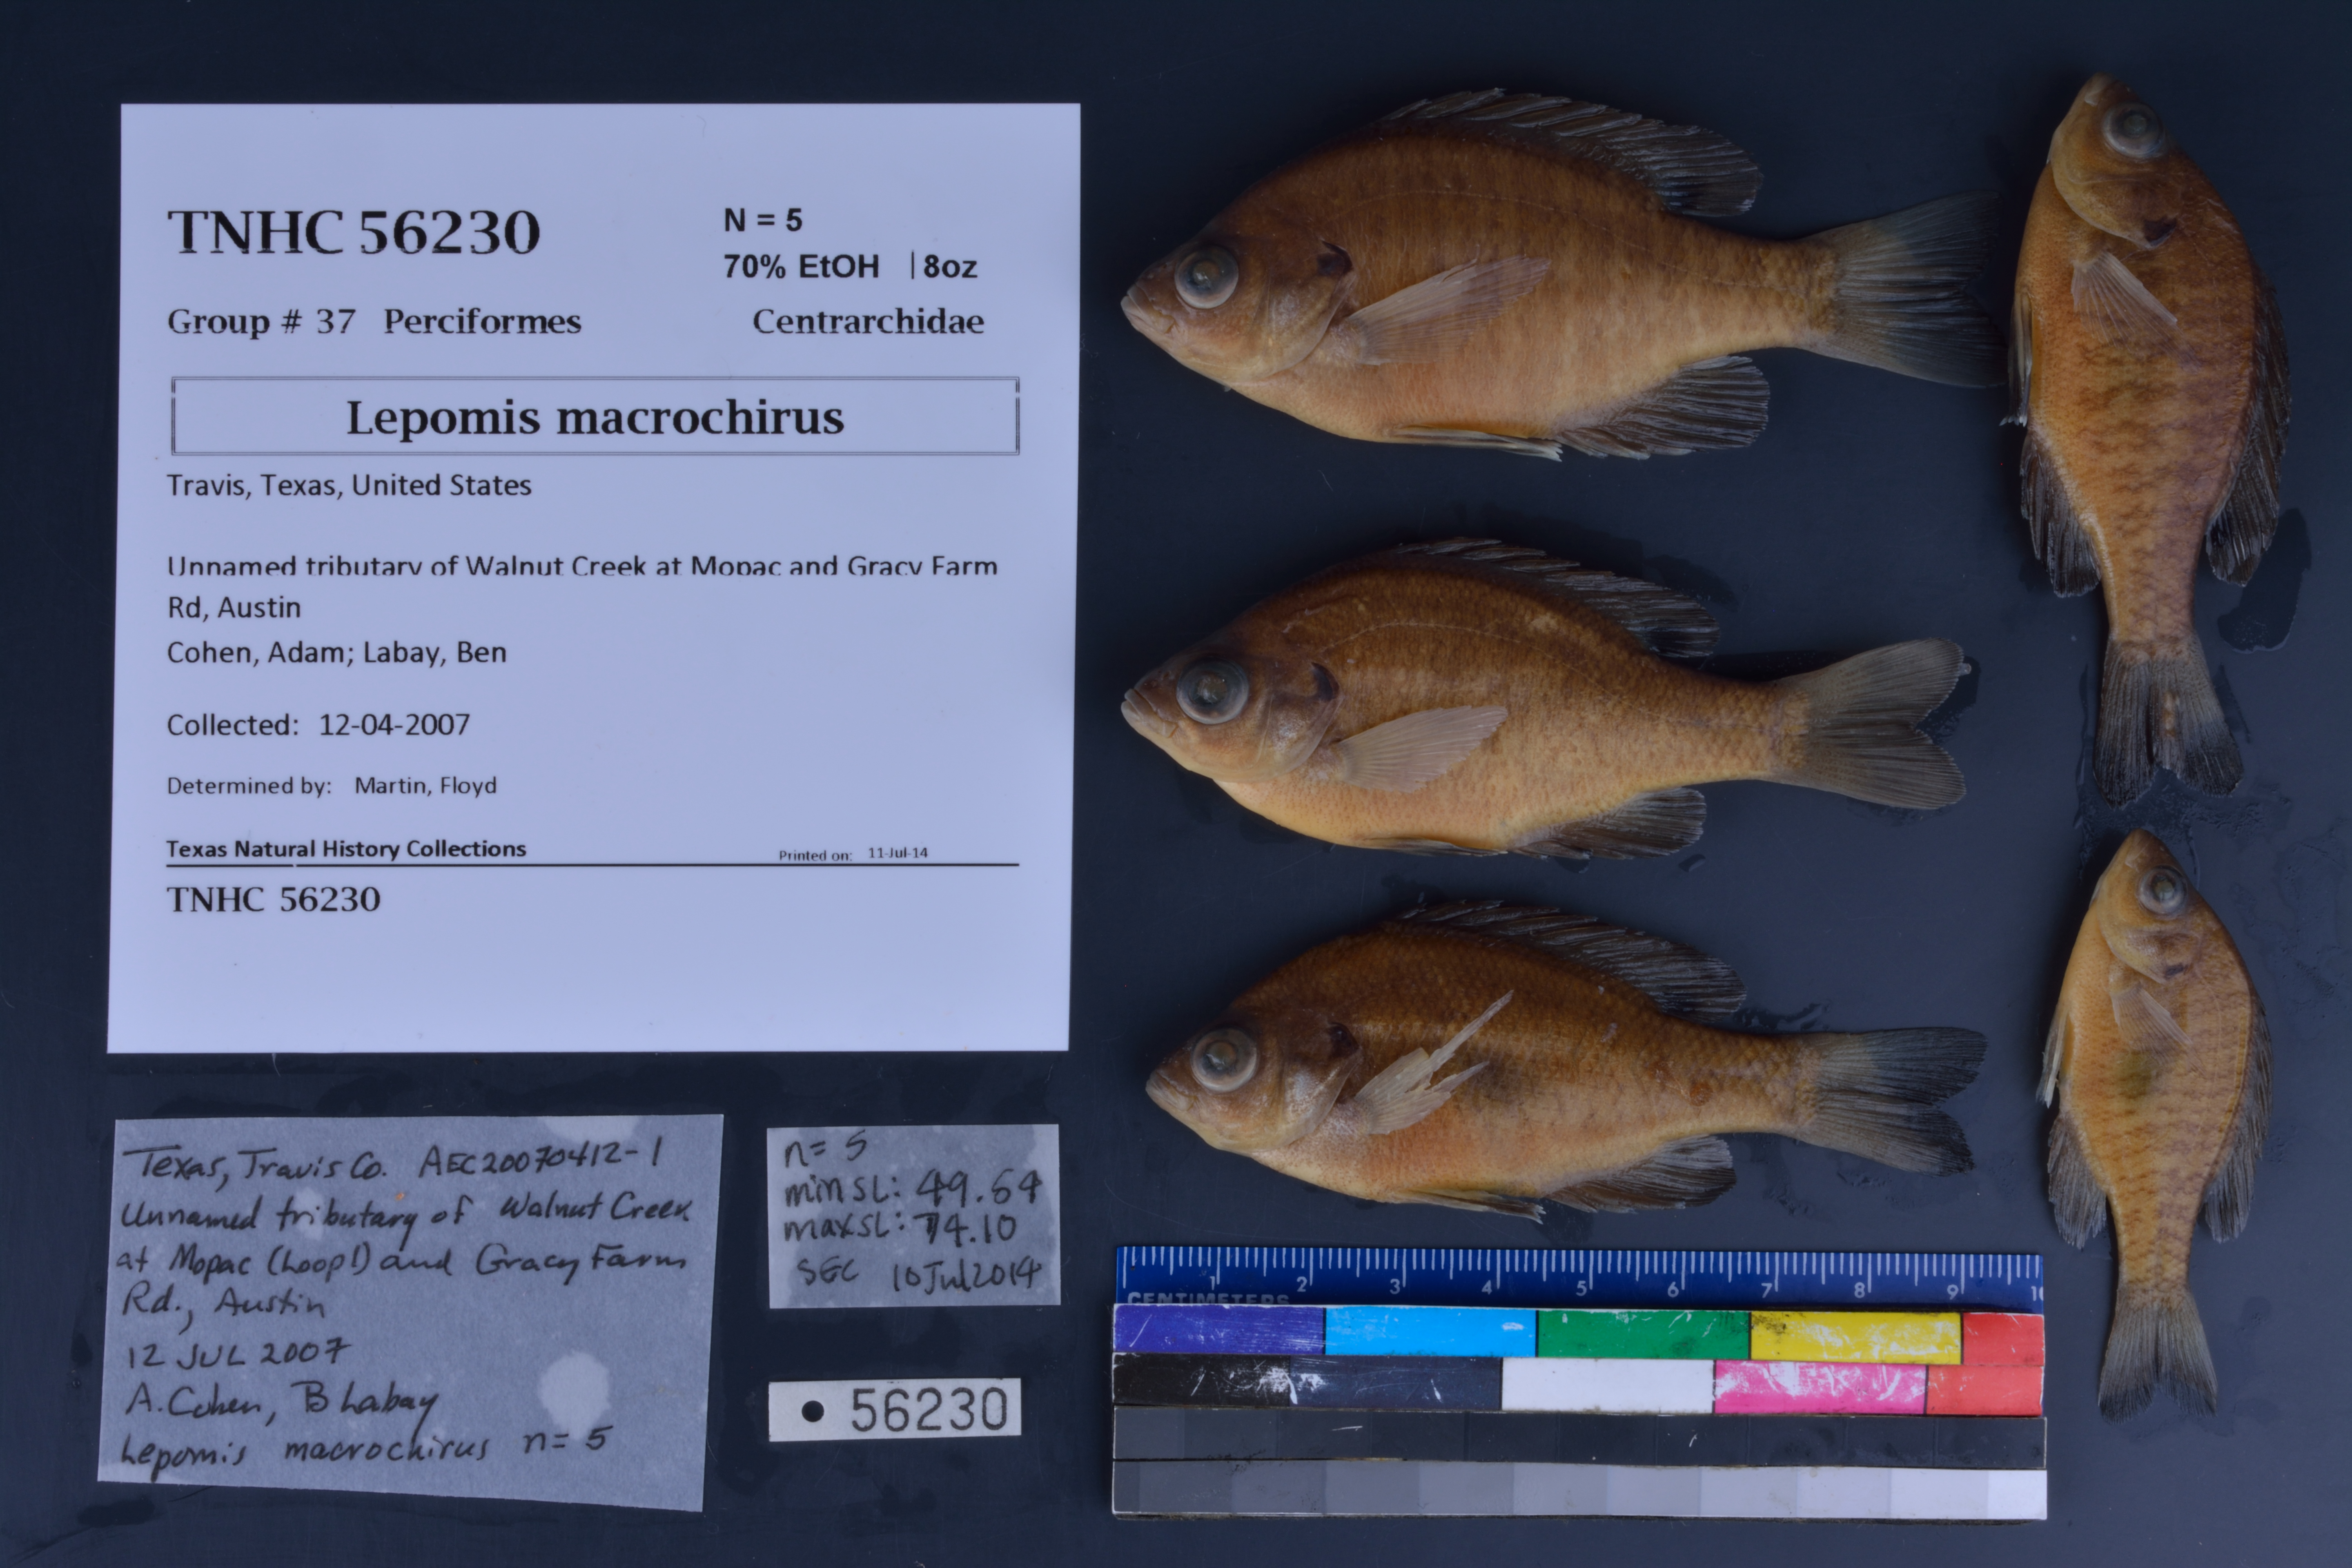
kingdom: Animalia
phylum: Chordata
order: Perciformes
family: Centrarchidae
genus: Lepomis
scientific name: Lepomis macrochirus
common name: Bluegill
